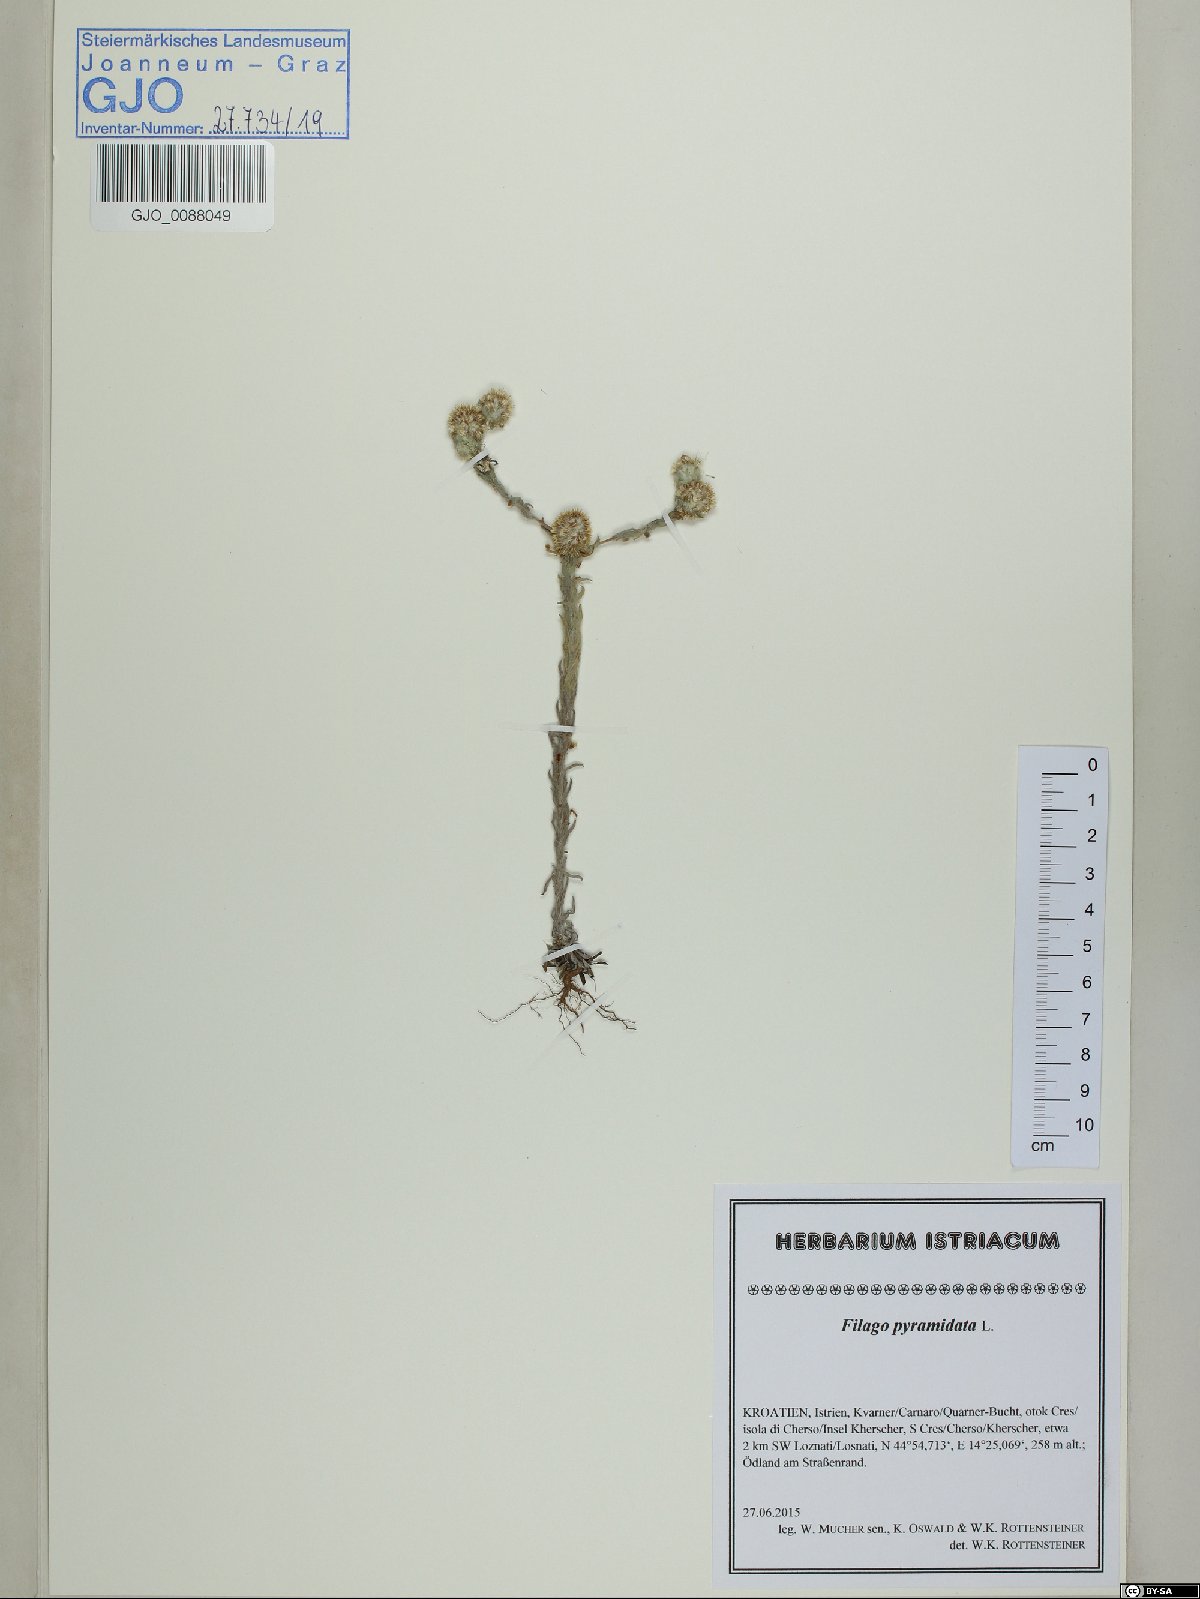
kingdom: Plantae
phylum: Tracheophyta
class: Magnoliopsida
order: Asterales
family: Asteraceae
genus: Filago
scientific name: Filago pyramidata
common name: Broad-leaved cudweed
